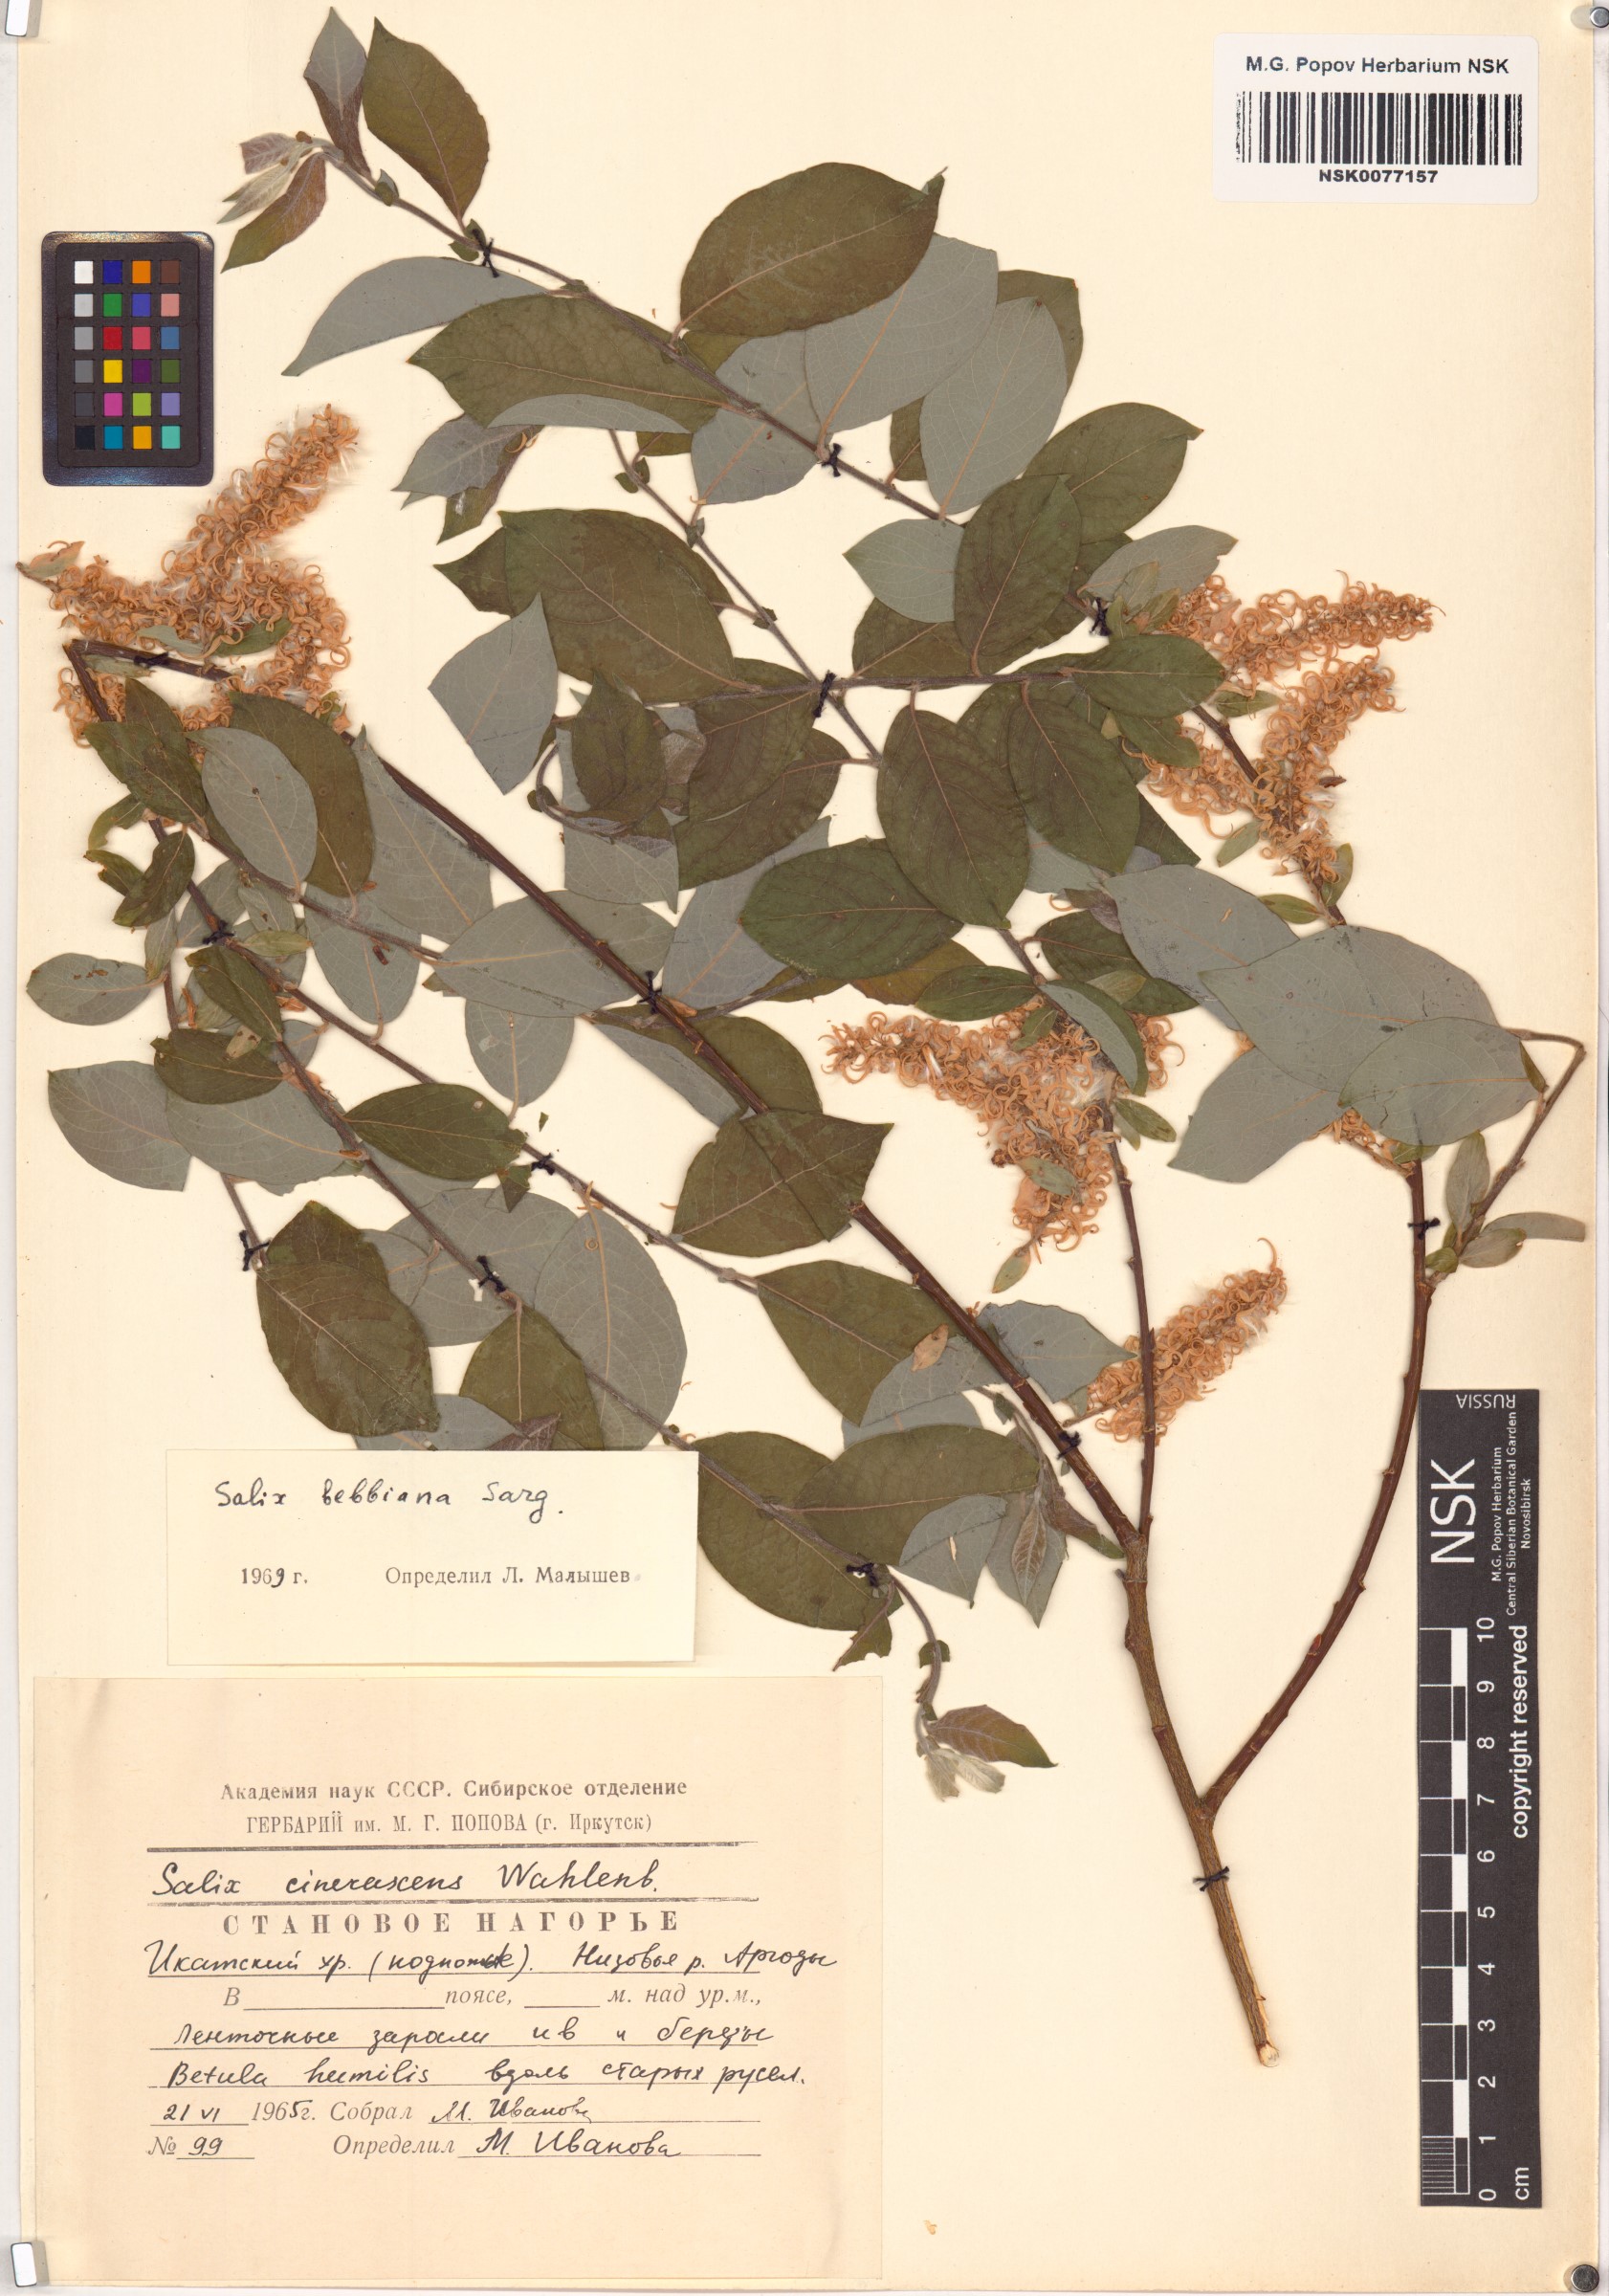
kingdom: Plantae
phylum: Tracheophyta
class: Magnoliopsida
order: Malpighiales
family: Salicaceae
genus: Salix
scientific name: Salix bebbiana
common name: Bebb's willow
